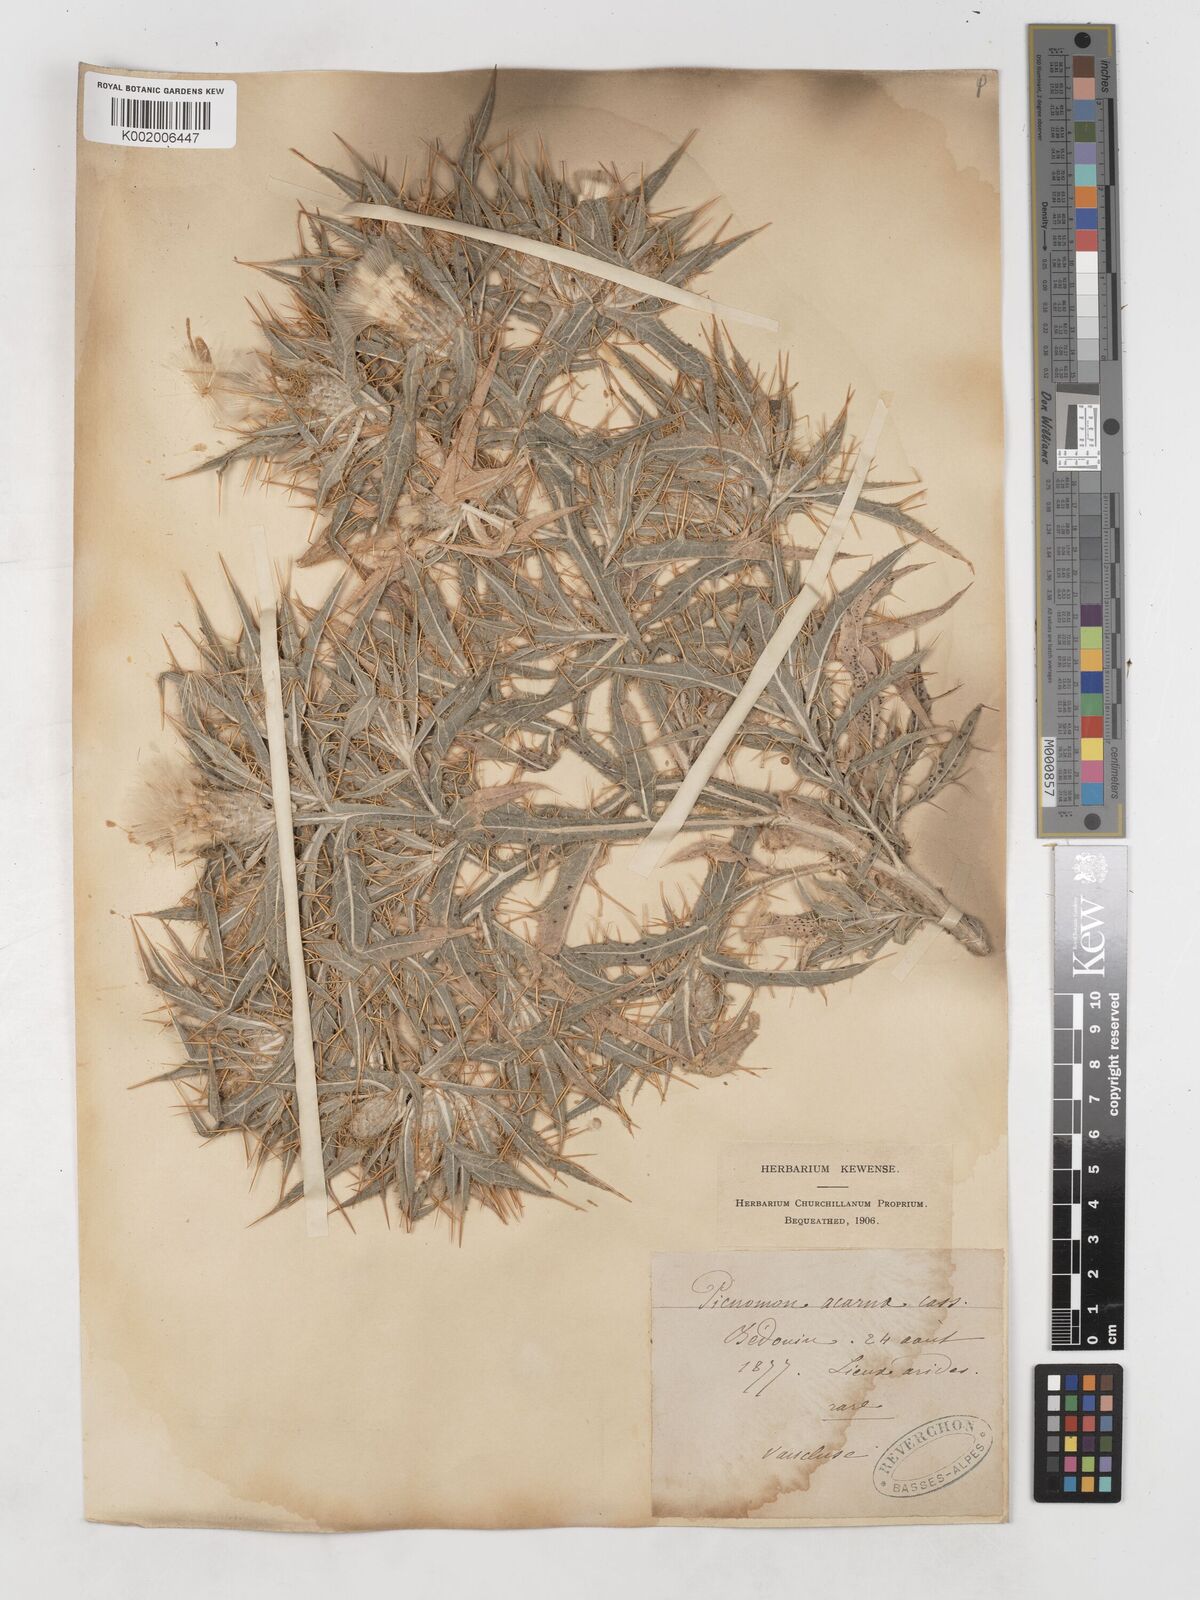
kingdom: Plantae
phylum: Tracheophyta
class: Magnoliopsida
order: Asterales
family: Asteraceae
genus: Picnomon
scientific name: Picnomon acarna
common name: Soldier thistle
